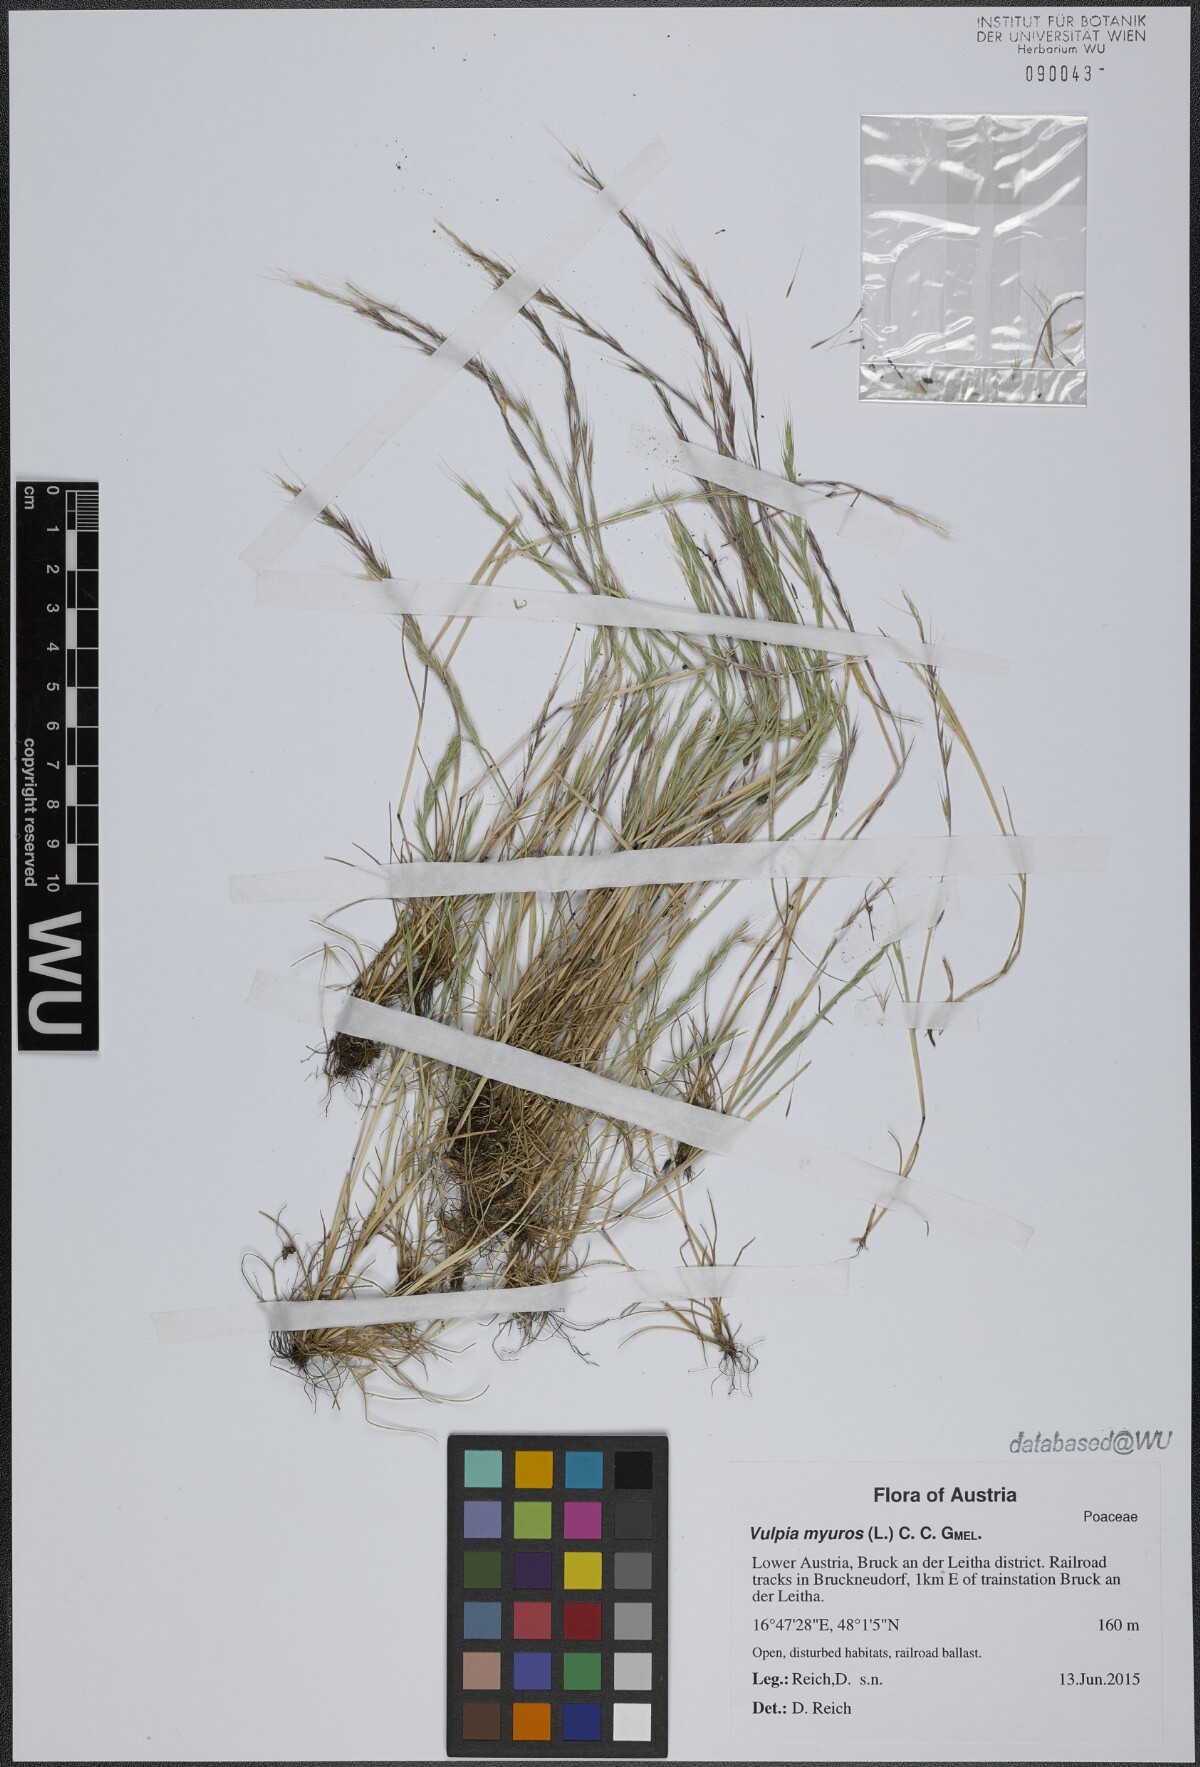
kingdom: Plantae
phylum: Tracheophyta
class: Liliopsida
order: Poales
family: Poaceae
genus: Festuca
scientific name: Festuca myuros
